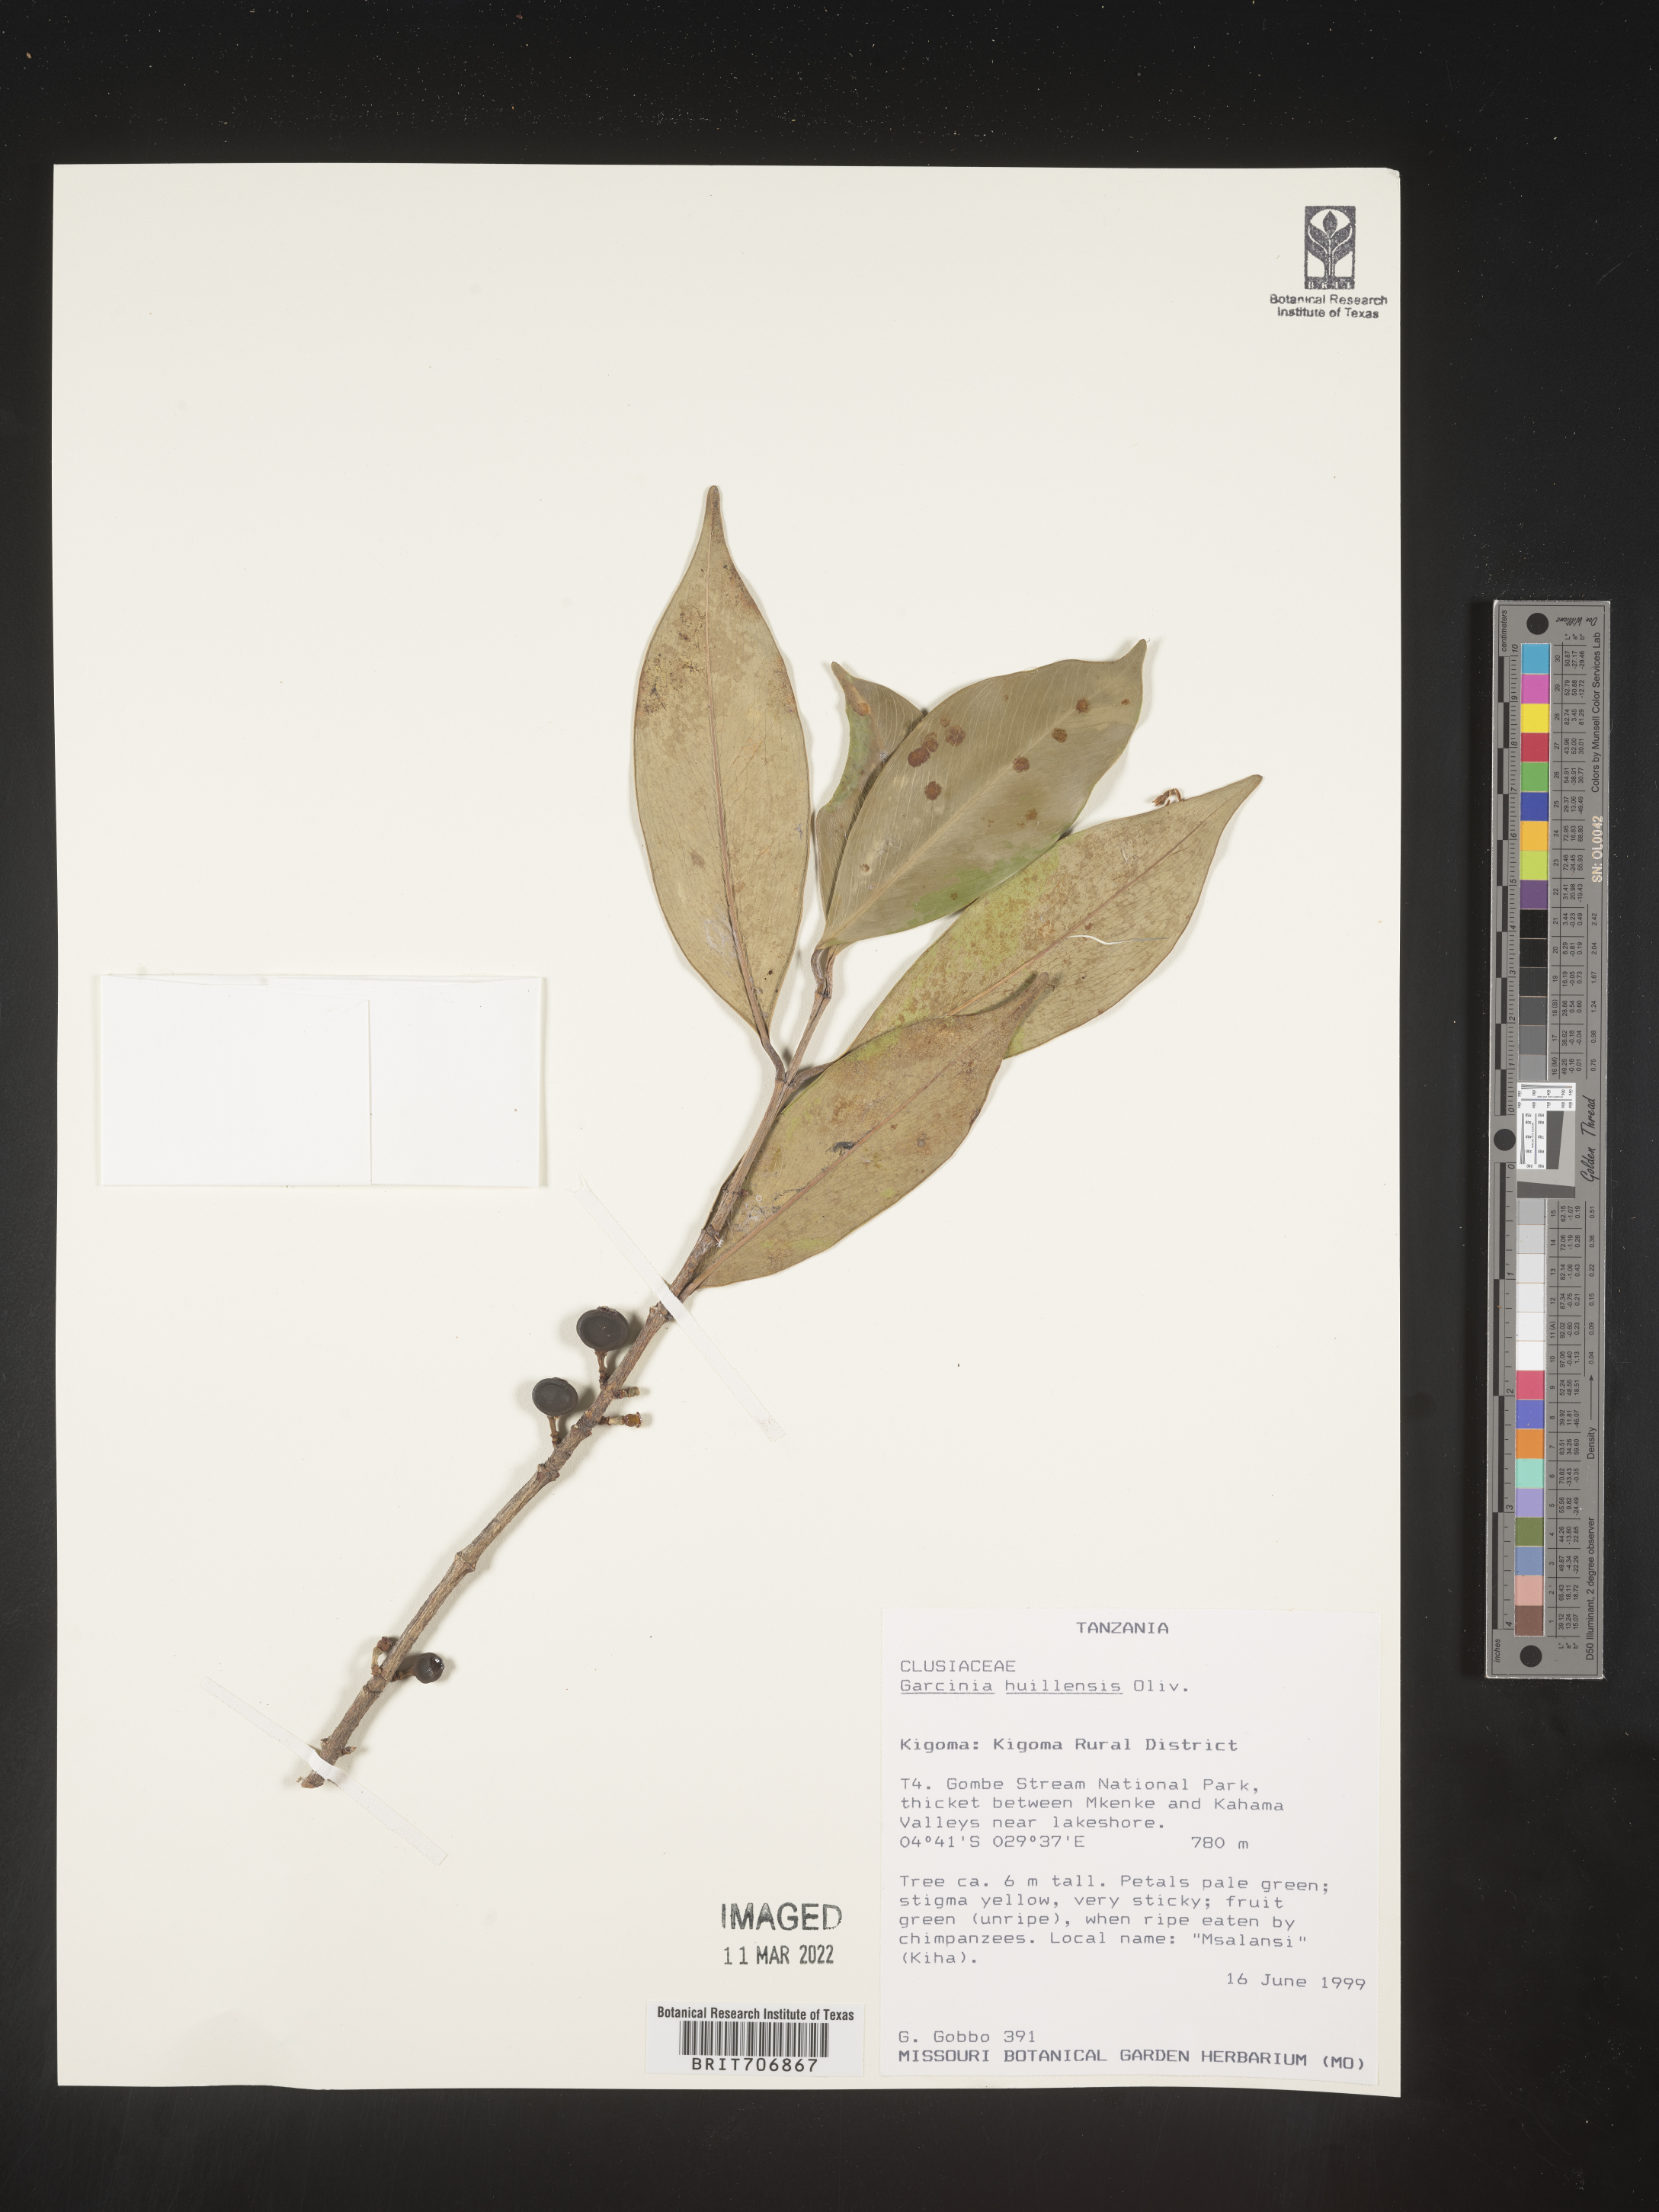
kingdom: Plantae
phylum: Tracheophyta
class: Magnoliopsida
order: Malpighiales
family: Clusiaceae
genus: Garcinia
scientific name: Garcinia
